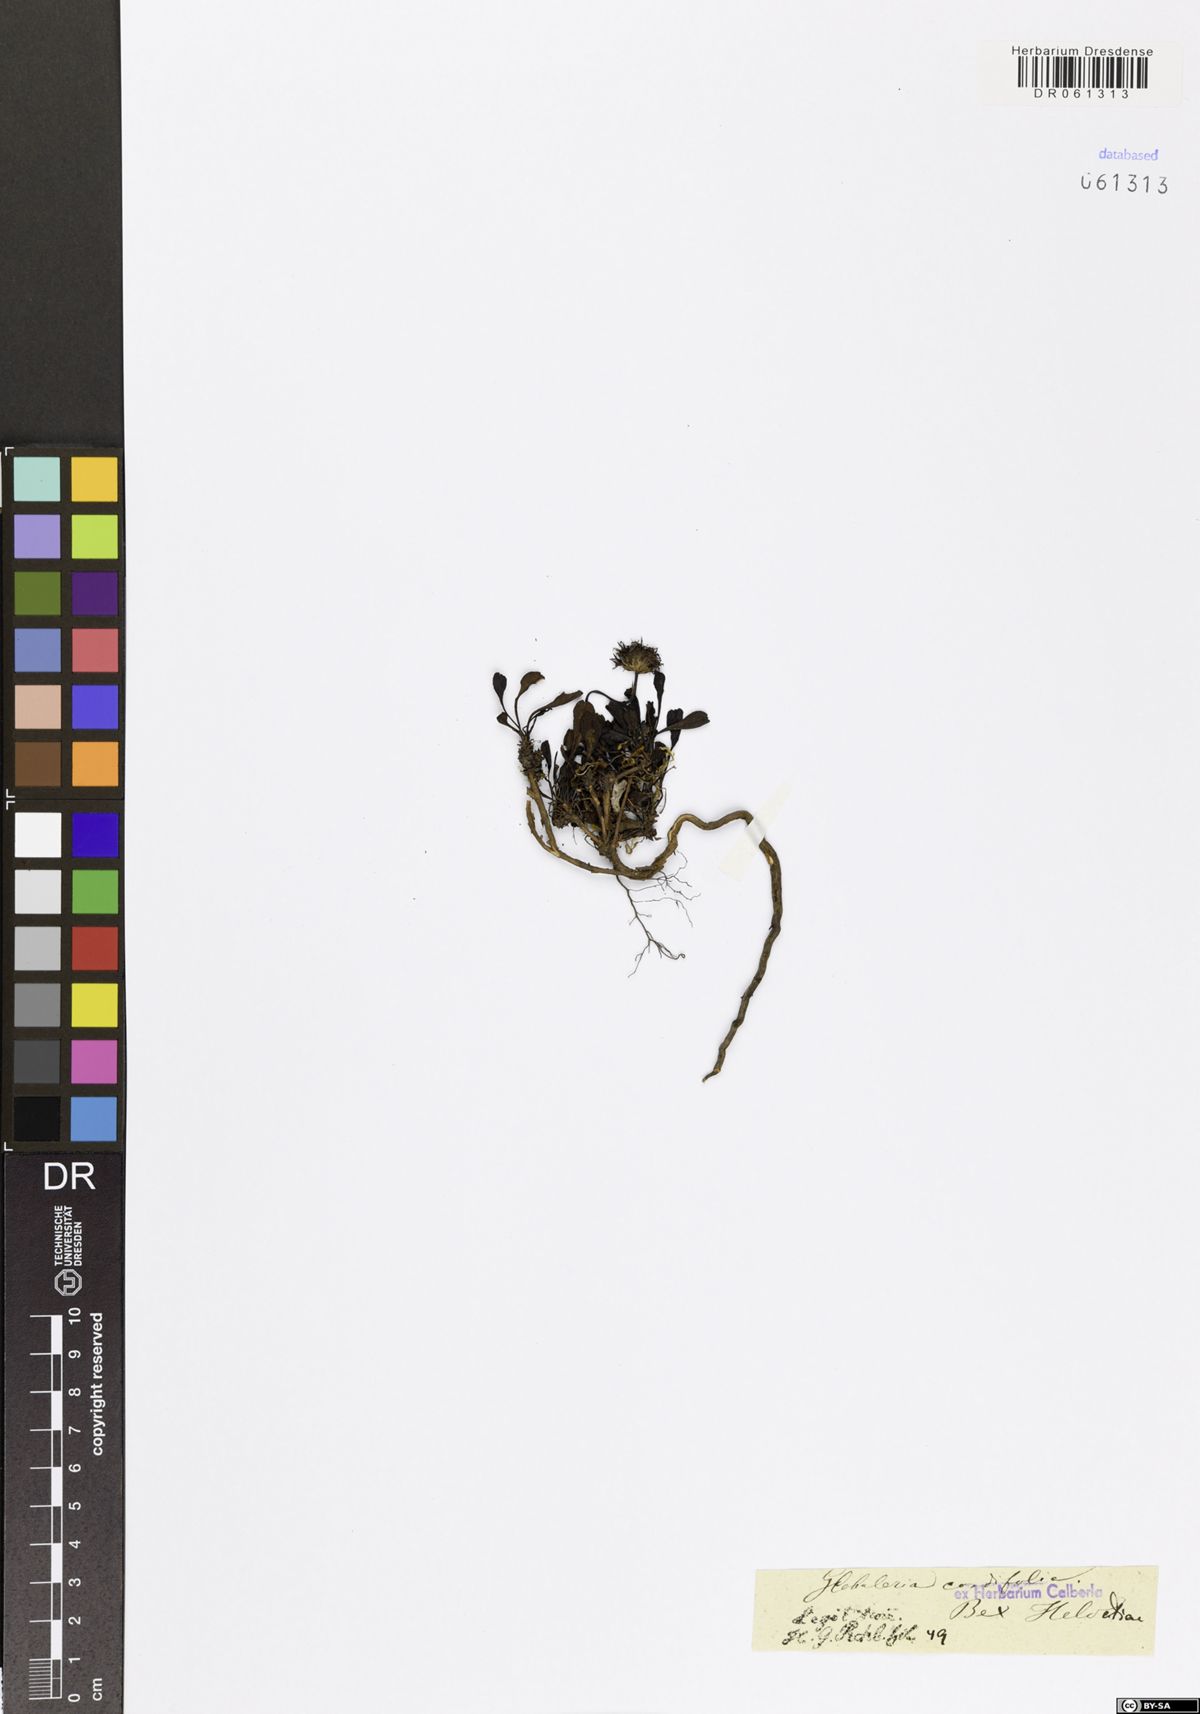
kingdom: Plantae
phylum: Tracheophyta
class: Magnoliopsida
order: Lamiales
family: Plantaginaceae
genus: Globularia
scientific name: Globularia cordifolia
